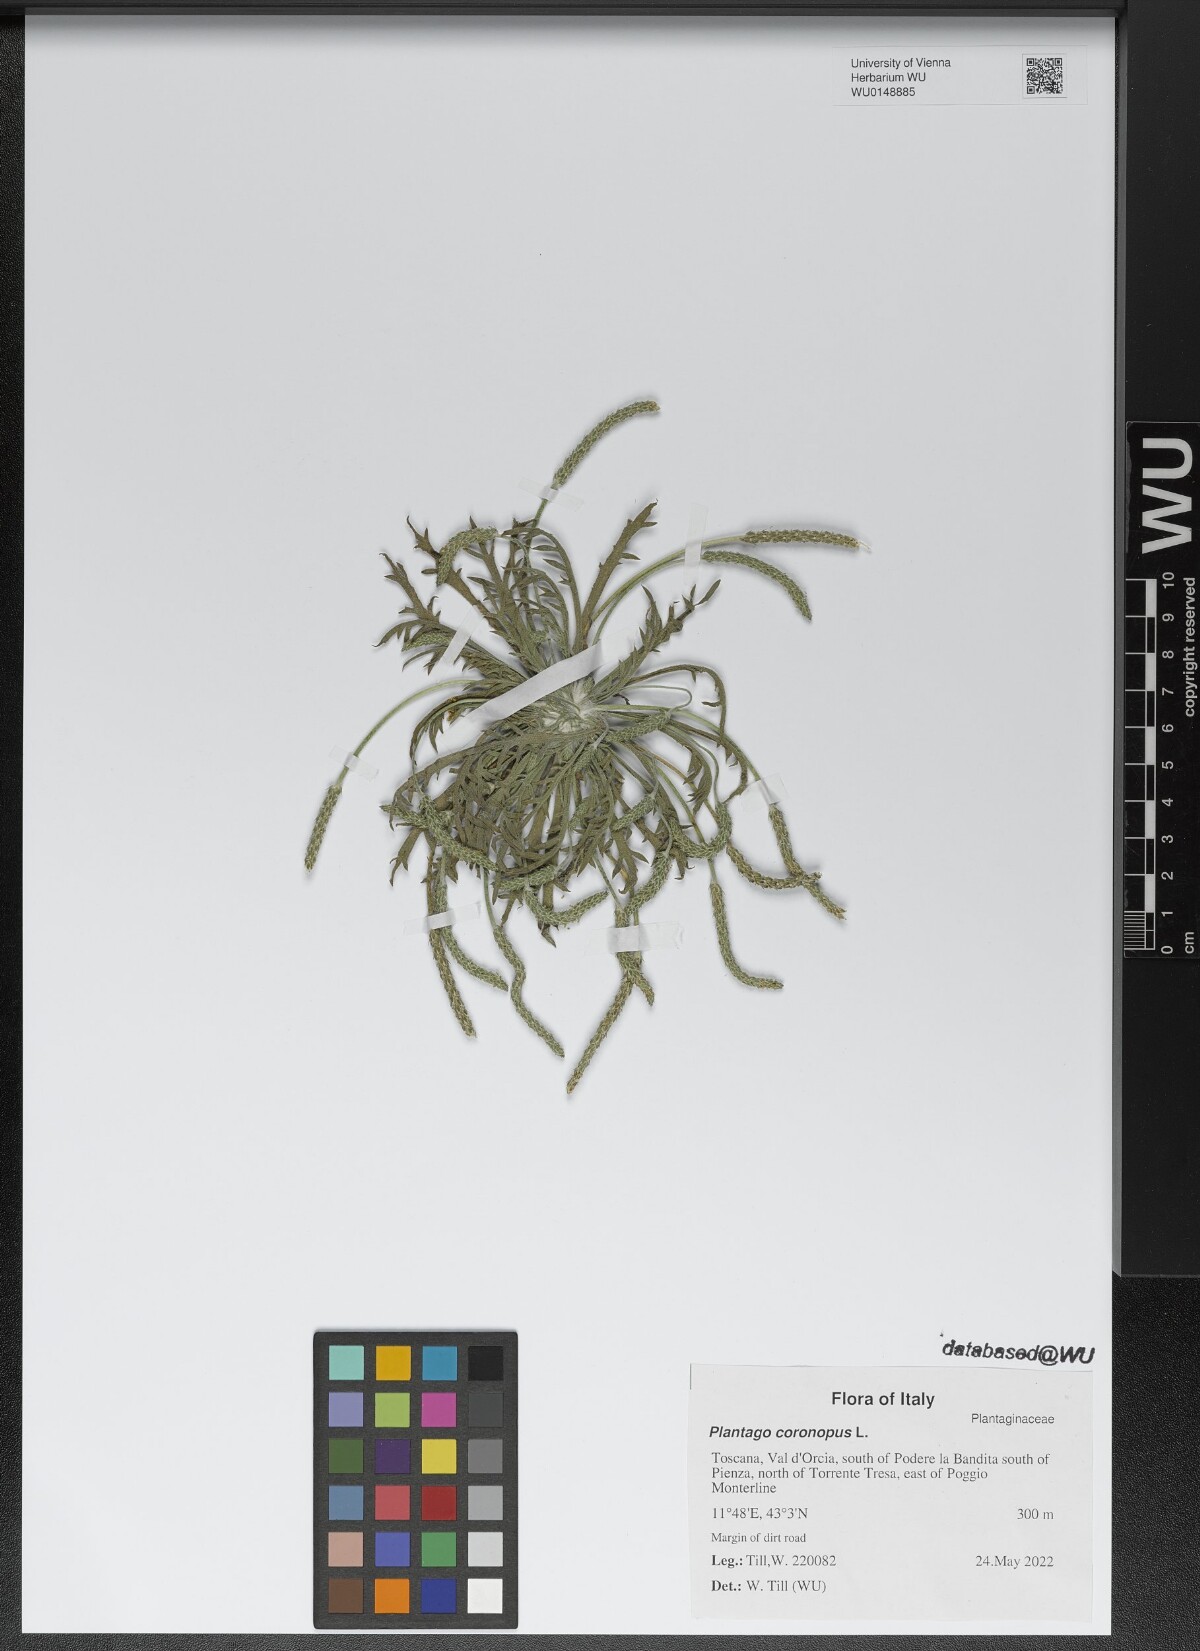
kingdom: Plantae
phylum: Tracheophyta
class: Magnoliopsida
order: Lamiales
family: Plantaginaceae
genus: Plantago
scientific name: Plantago coronopus
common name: Buck's-horn plantain
